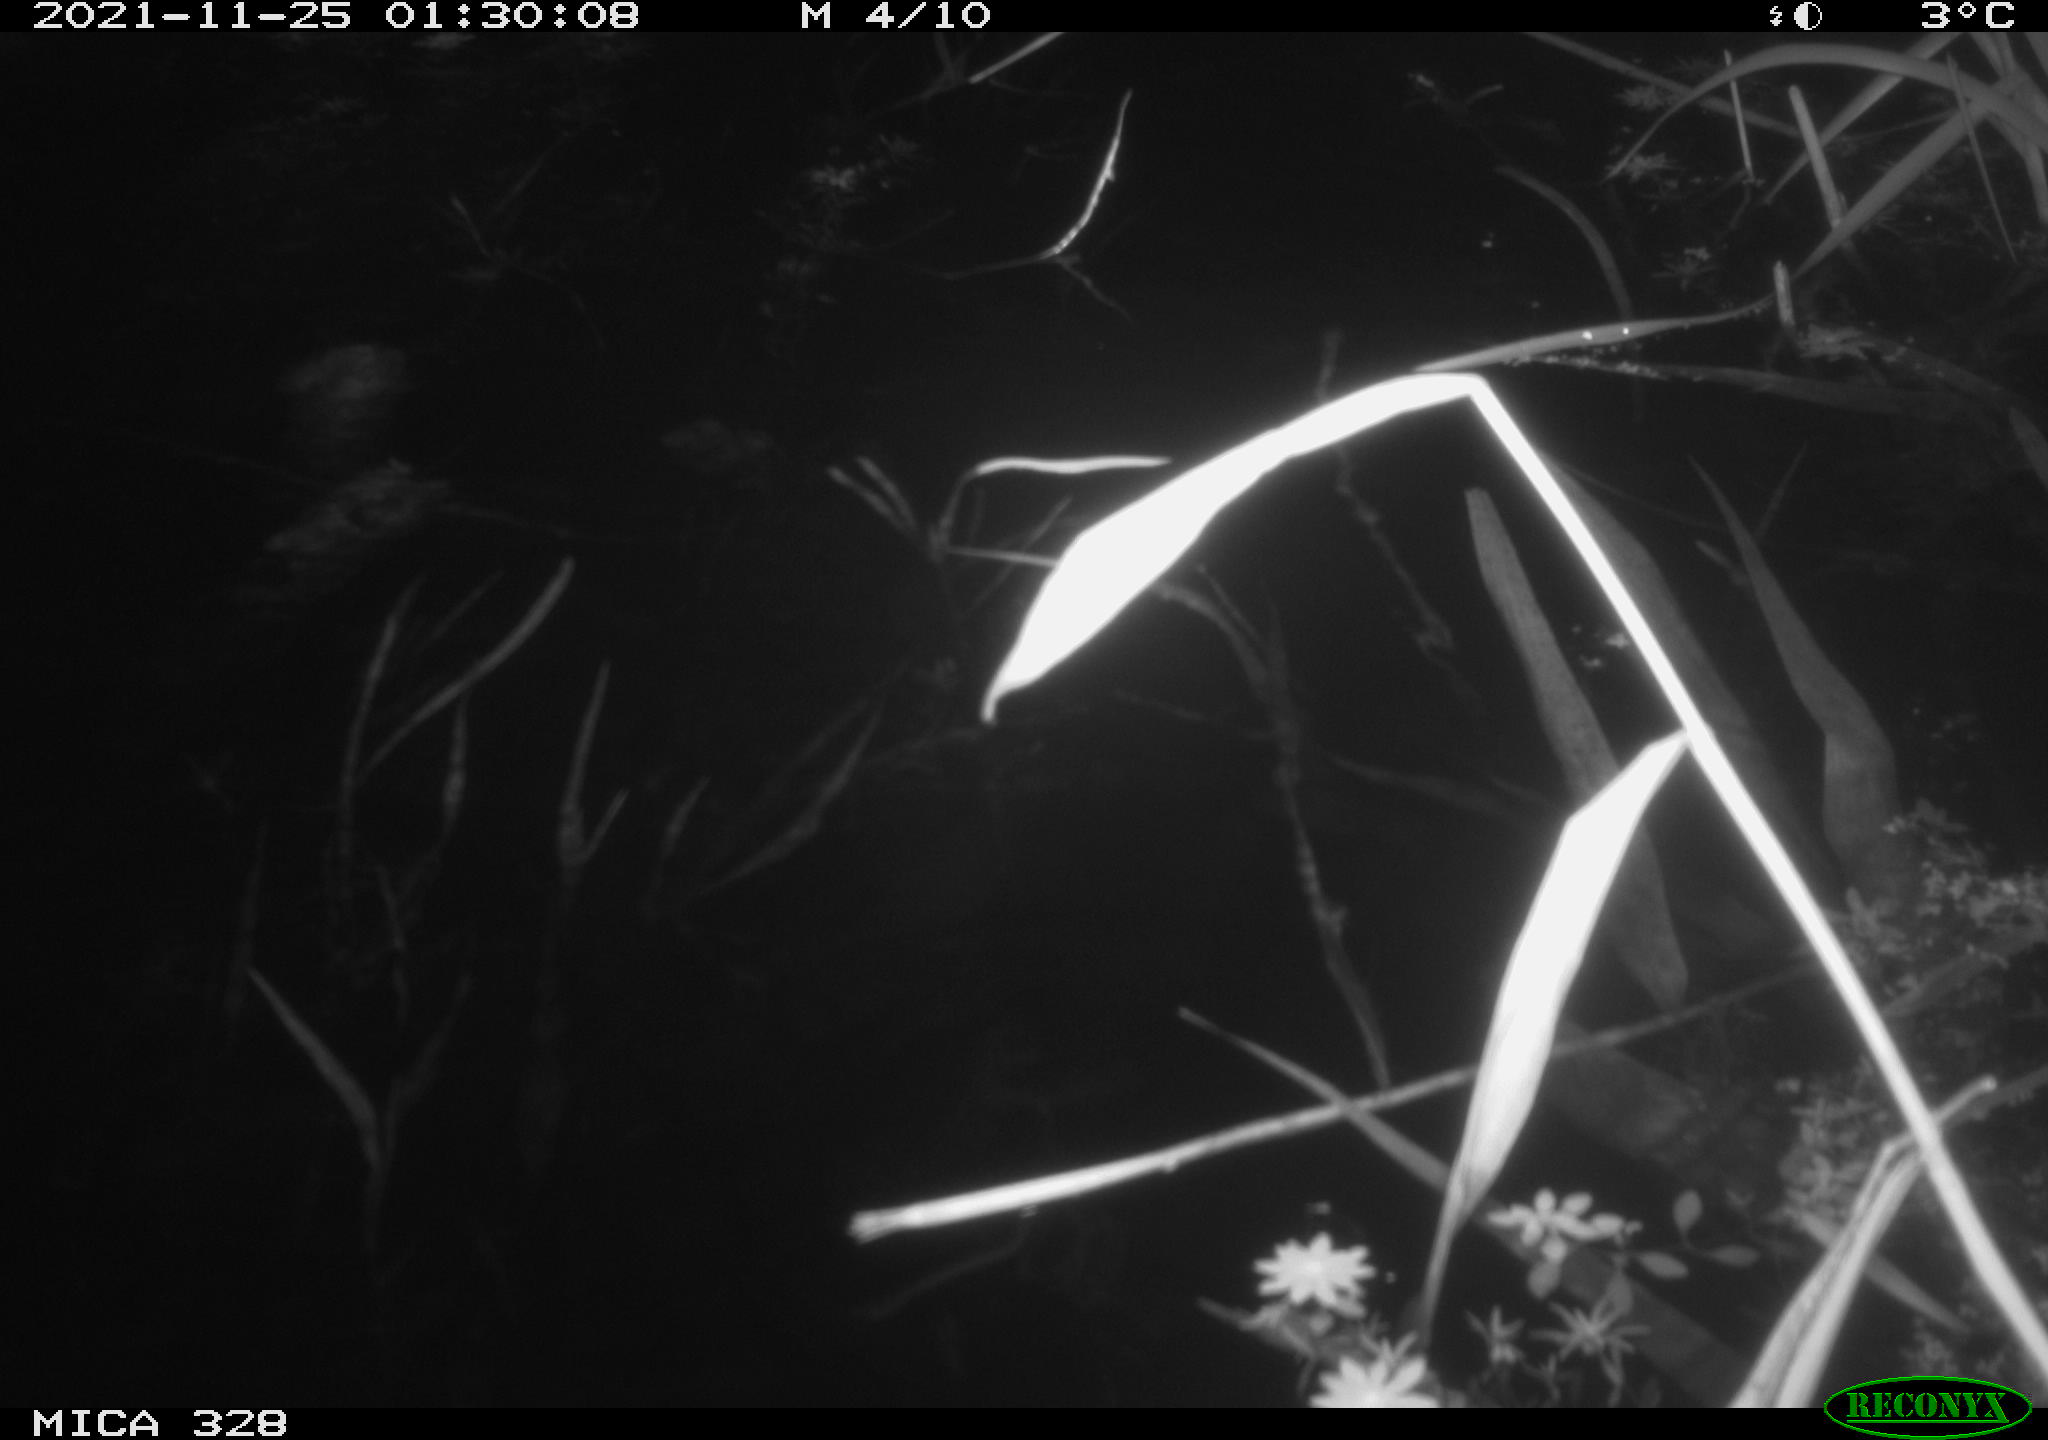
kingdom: Animalia
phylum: Chordata
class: Mammalia
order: Rodentia
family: Cricetidae
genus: Ondatra
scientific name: Ondatra zibethicus
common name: Muskrat
